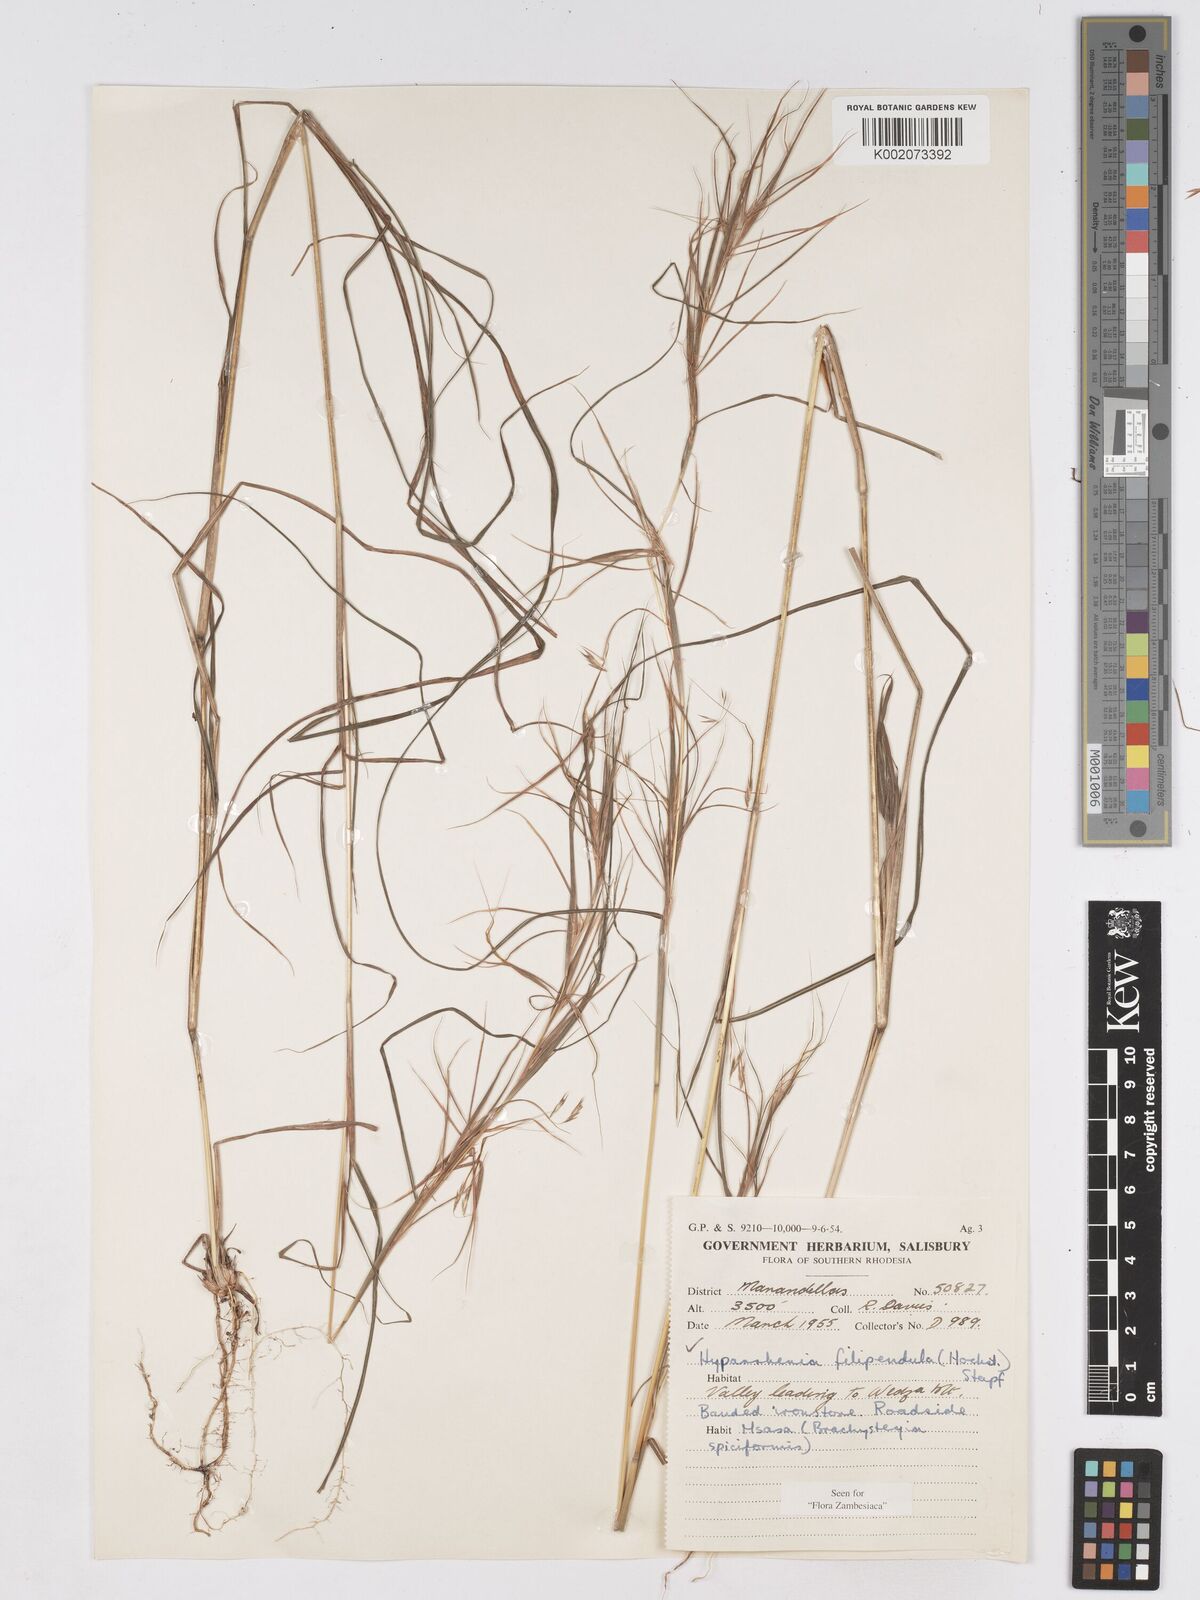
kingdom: Plantae
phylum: Tracheophyta
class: Liliopsida
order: Poales
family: Poaceae
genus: Hyparrhenia
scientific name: Hyparrhenia filipendula
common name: Tambookie grass
